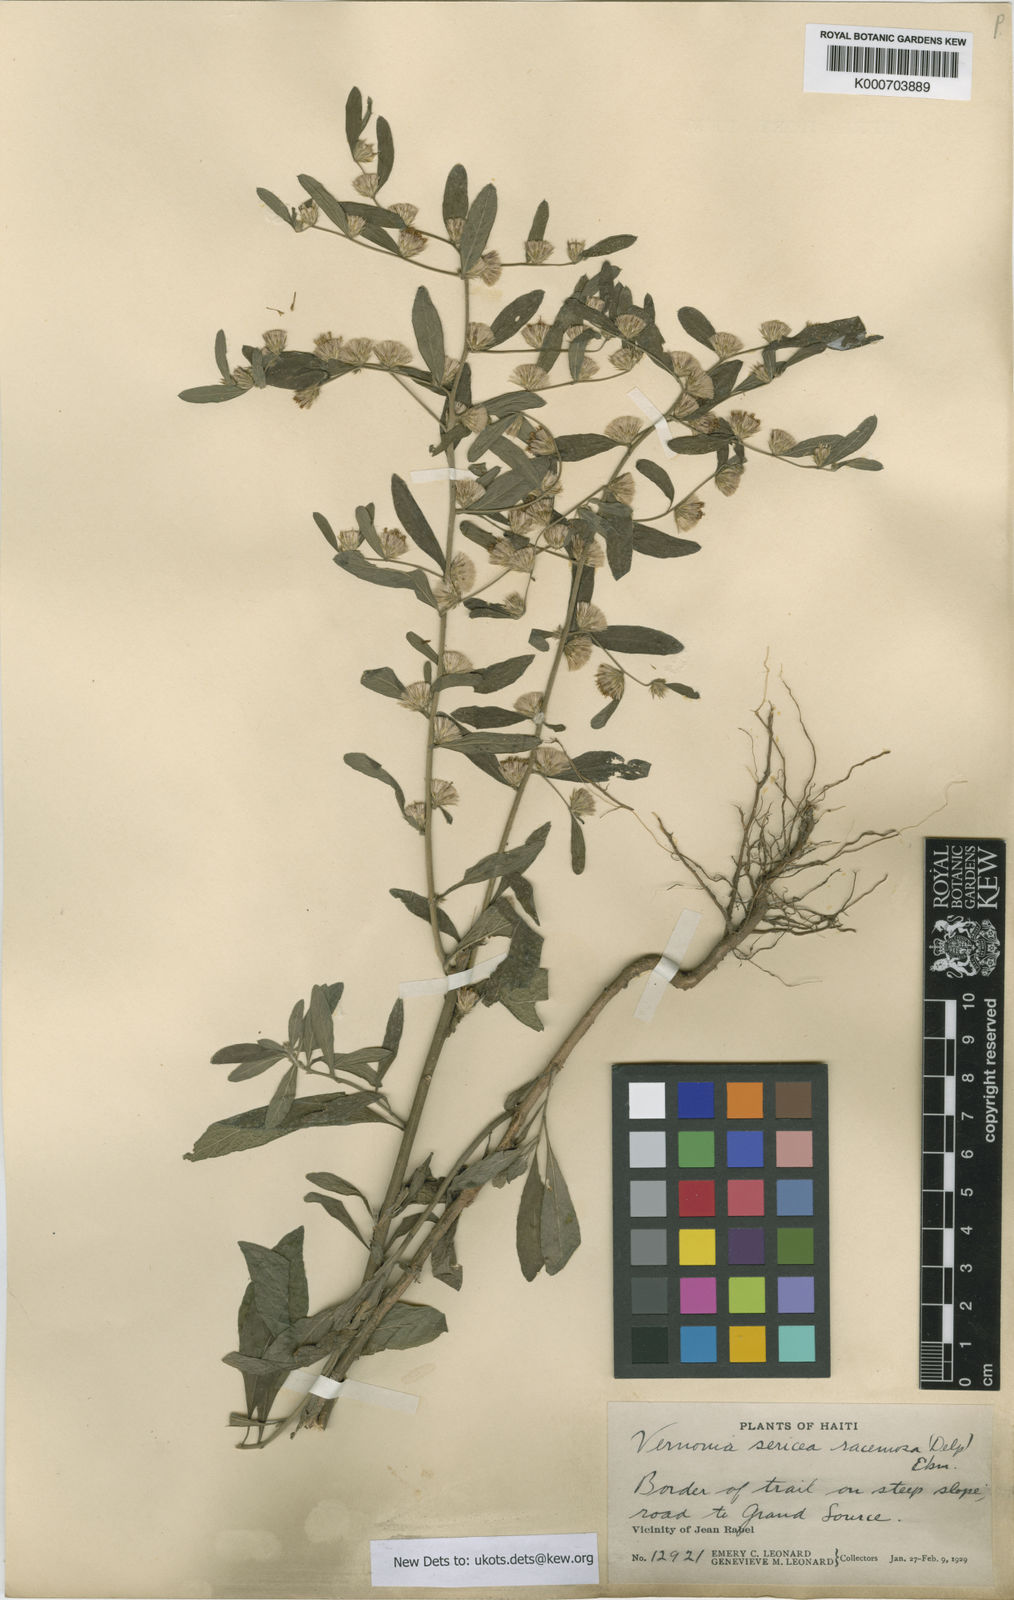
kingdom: Plantae
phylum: Tracheophyta
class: Magnoliopsida
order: Asterales
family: Asteraceae
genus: Lepidaploa
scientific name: Lepidaploa sericea
